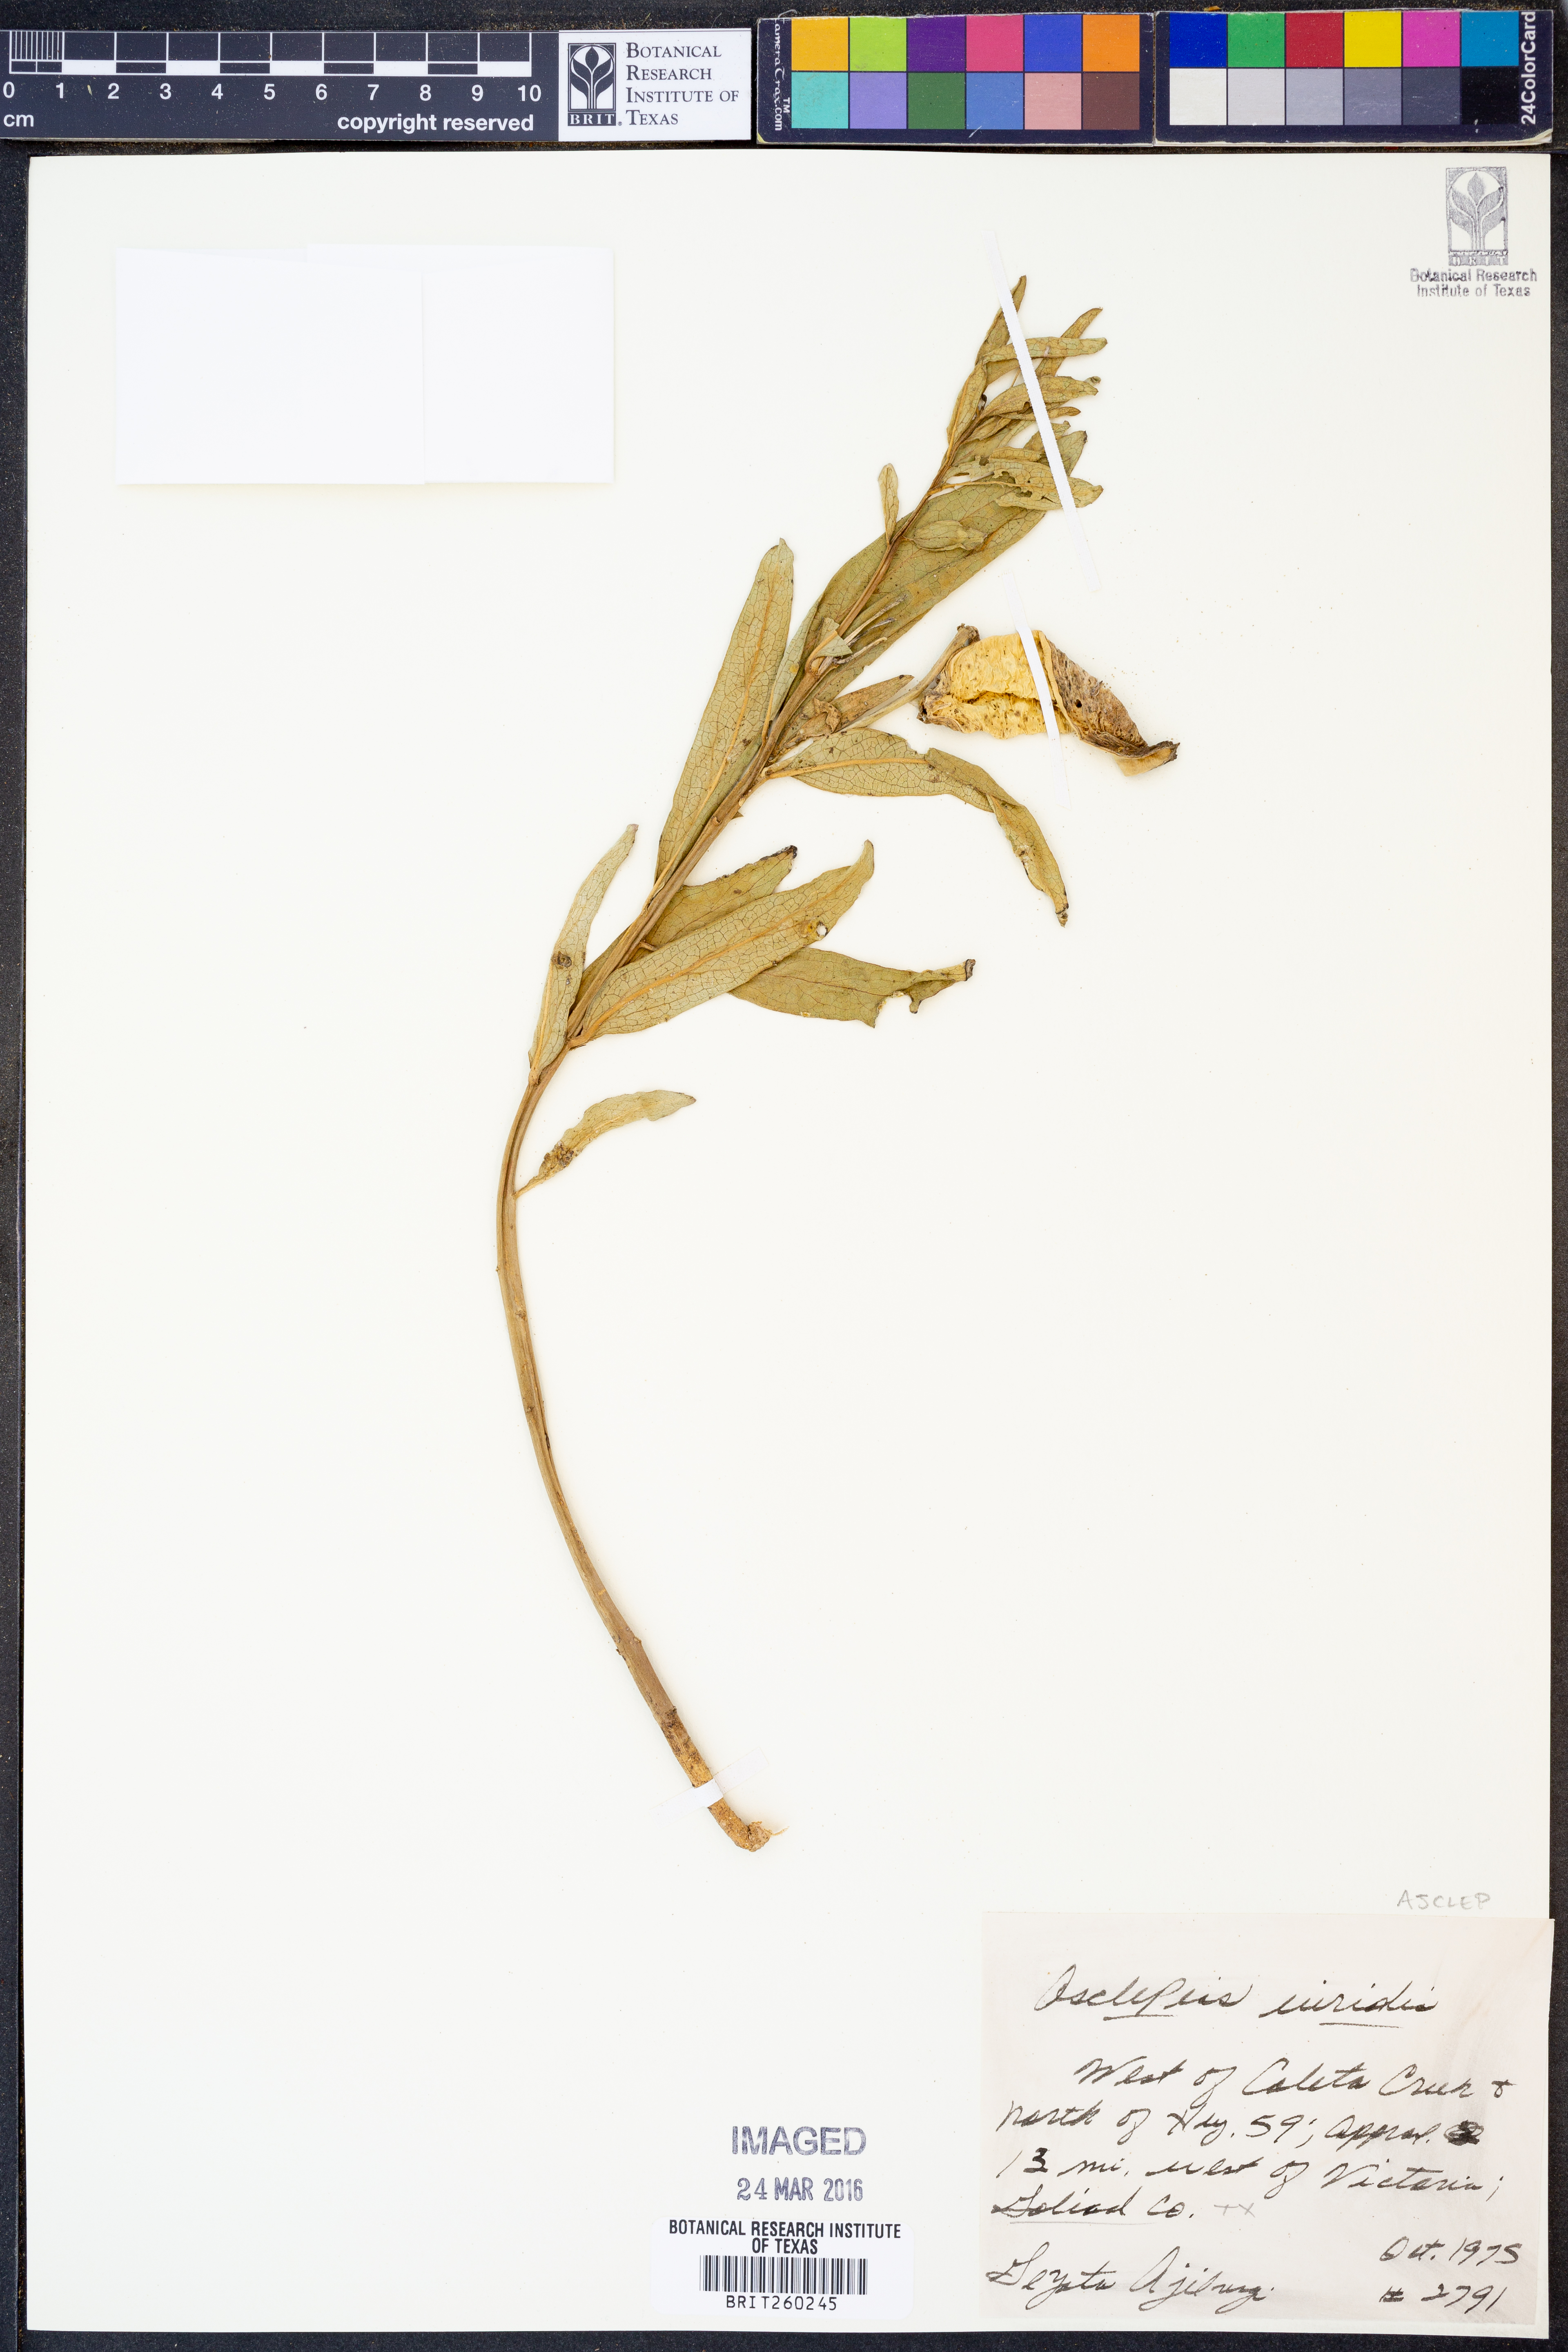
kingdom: Plantae
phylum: Tracheophyta
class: Magnoliopsida
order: Gentianales
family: Apocynaceae
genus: Asclepias
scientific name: Asclepias viridis
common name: Antelope-horns
